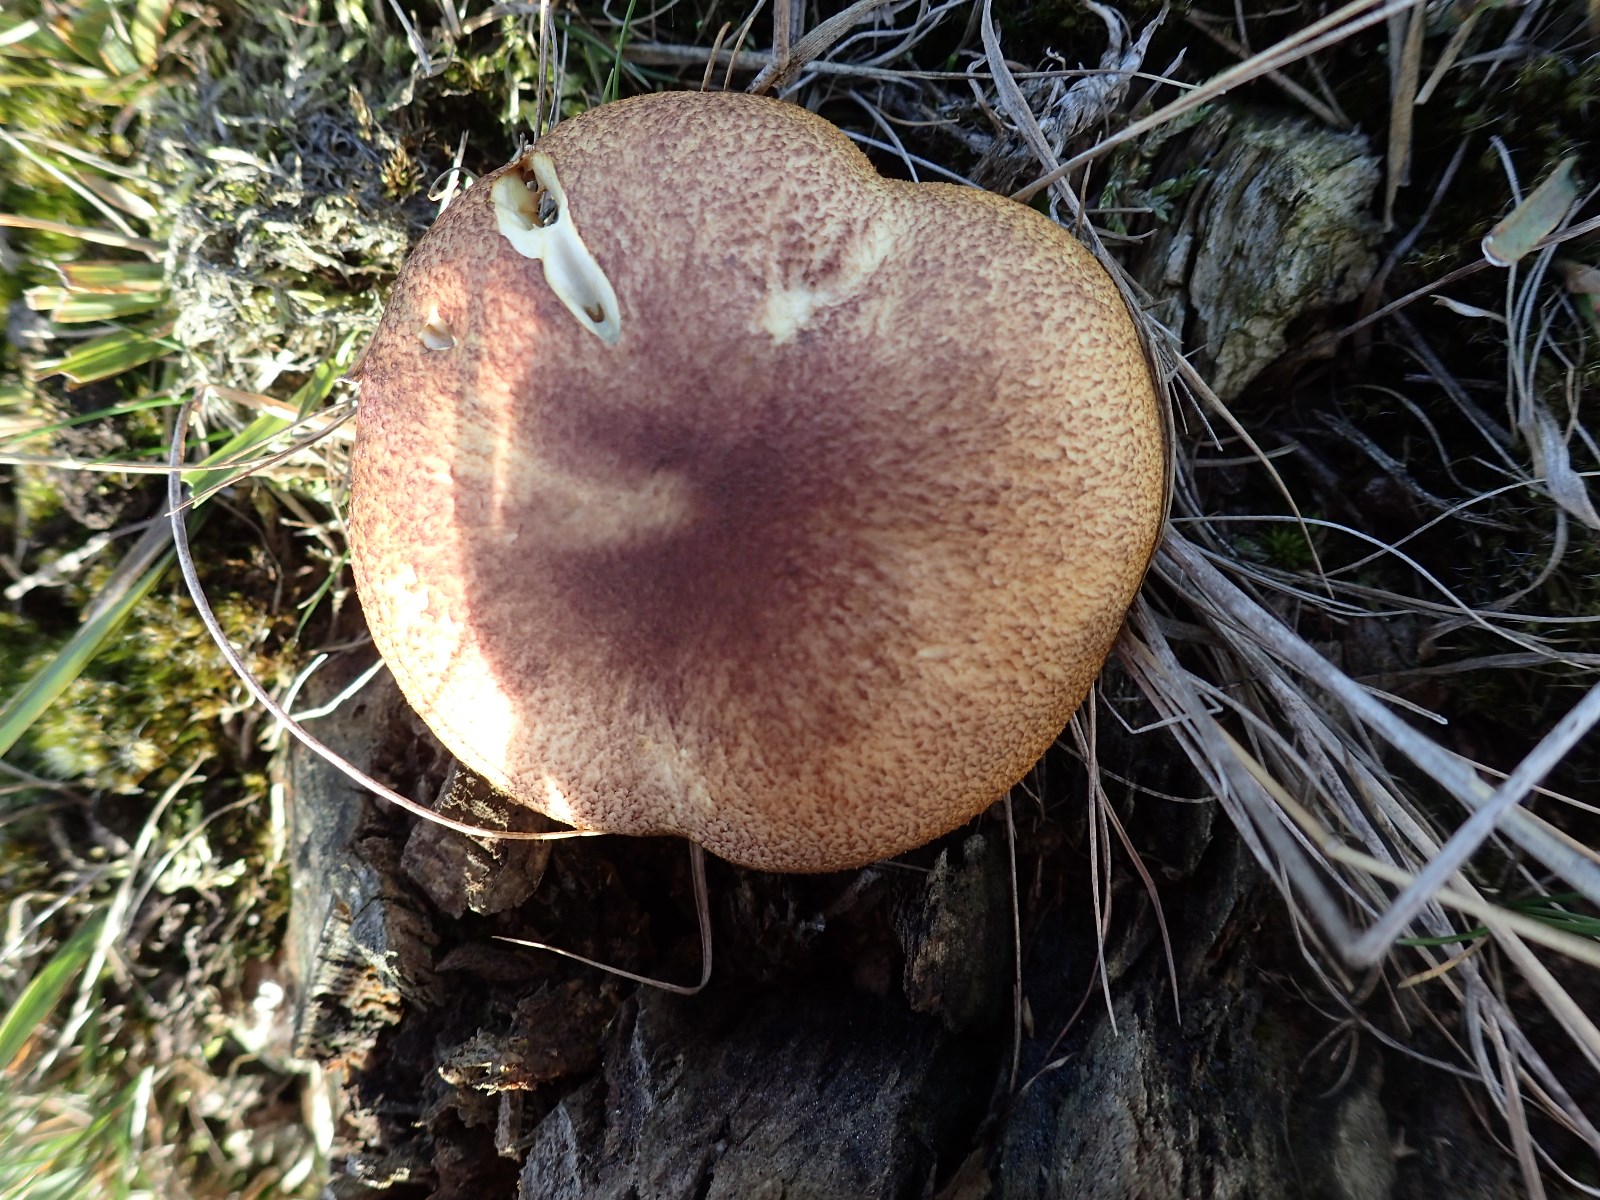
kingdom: Fungi
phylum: Basidiomycota
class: Agaricomycetes
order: Agaricales
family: Tricholomataceae
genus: Tricholomopsis
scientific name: Tricholomopsis rutilans
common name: purpur-væbnerhat
